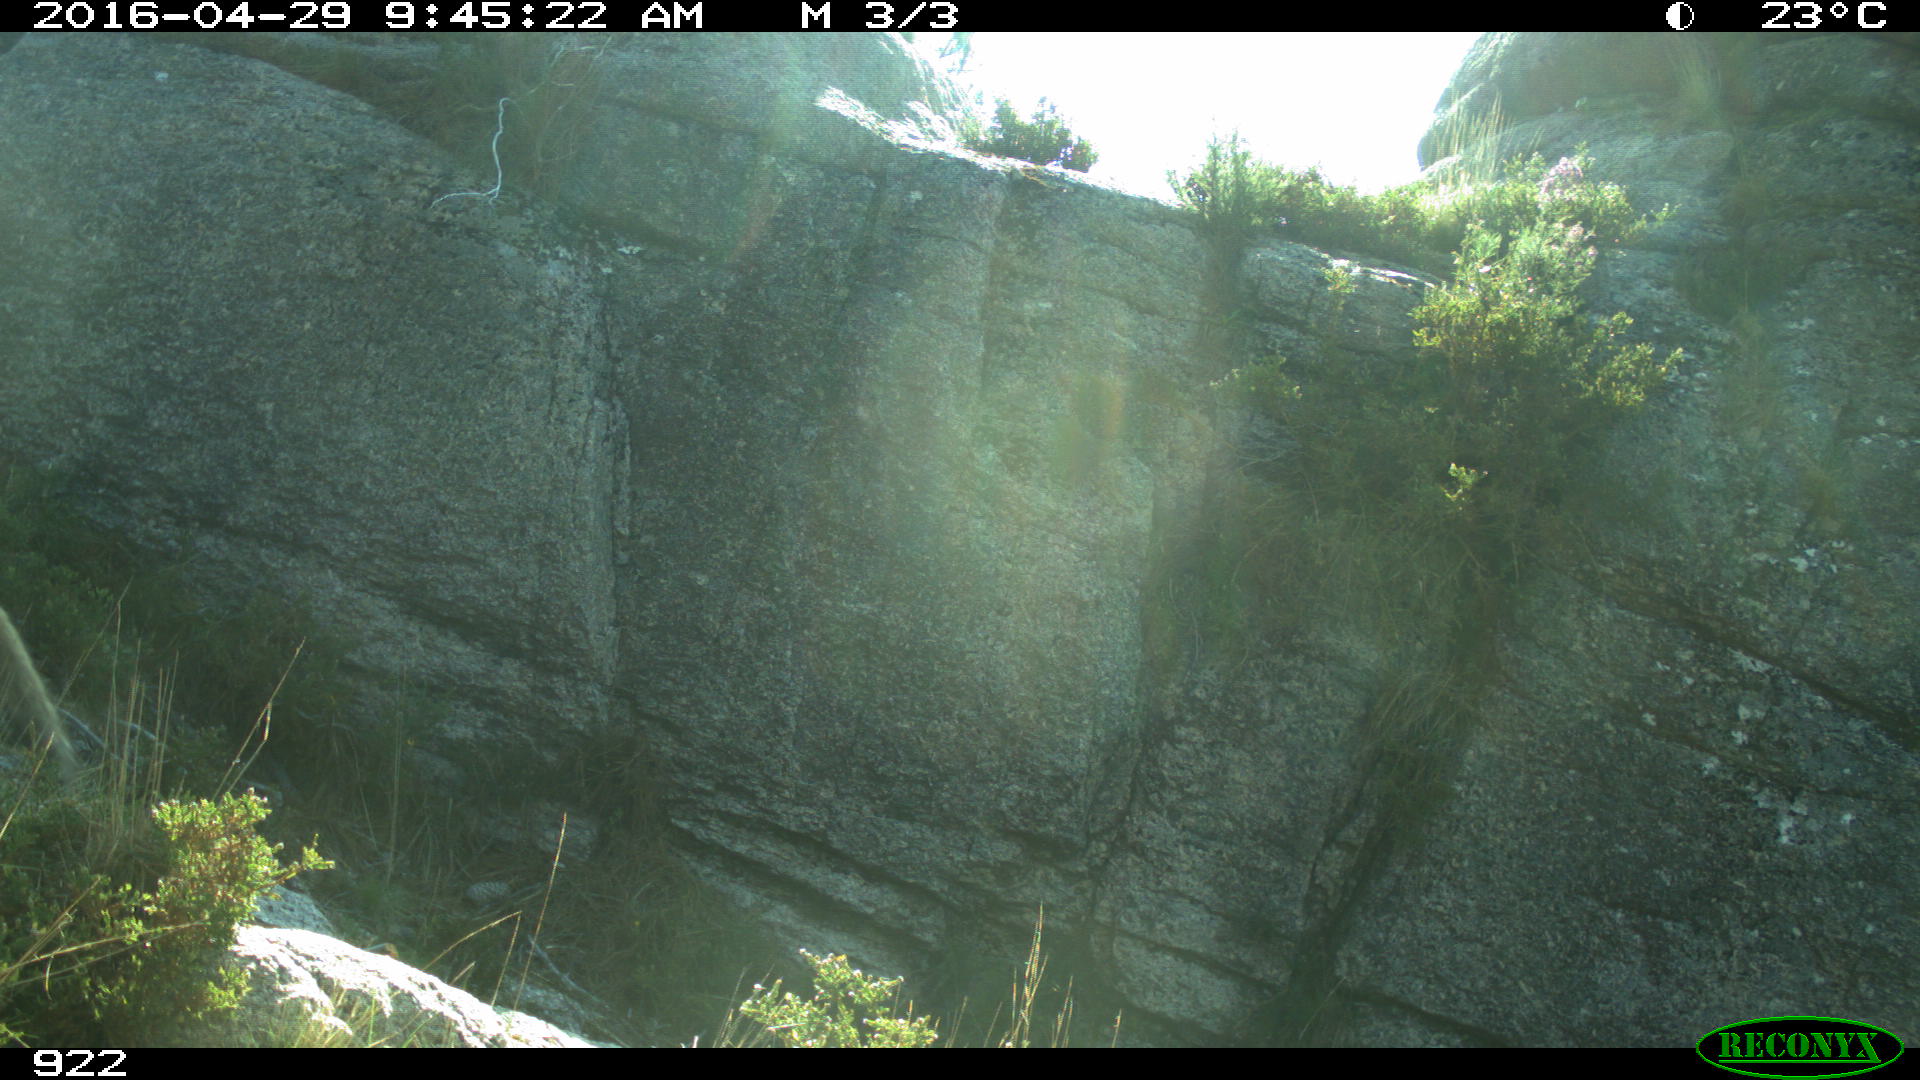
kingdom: Animalia
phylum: Chordata
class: Mammalia
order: Carnivora
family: Canidae
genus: Vulpes
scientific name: Vulpes vulpes
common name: Red fox
